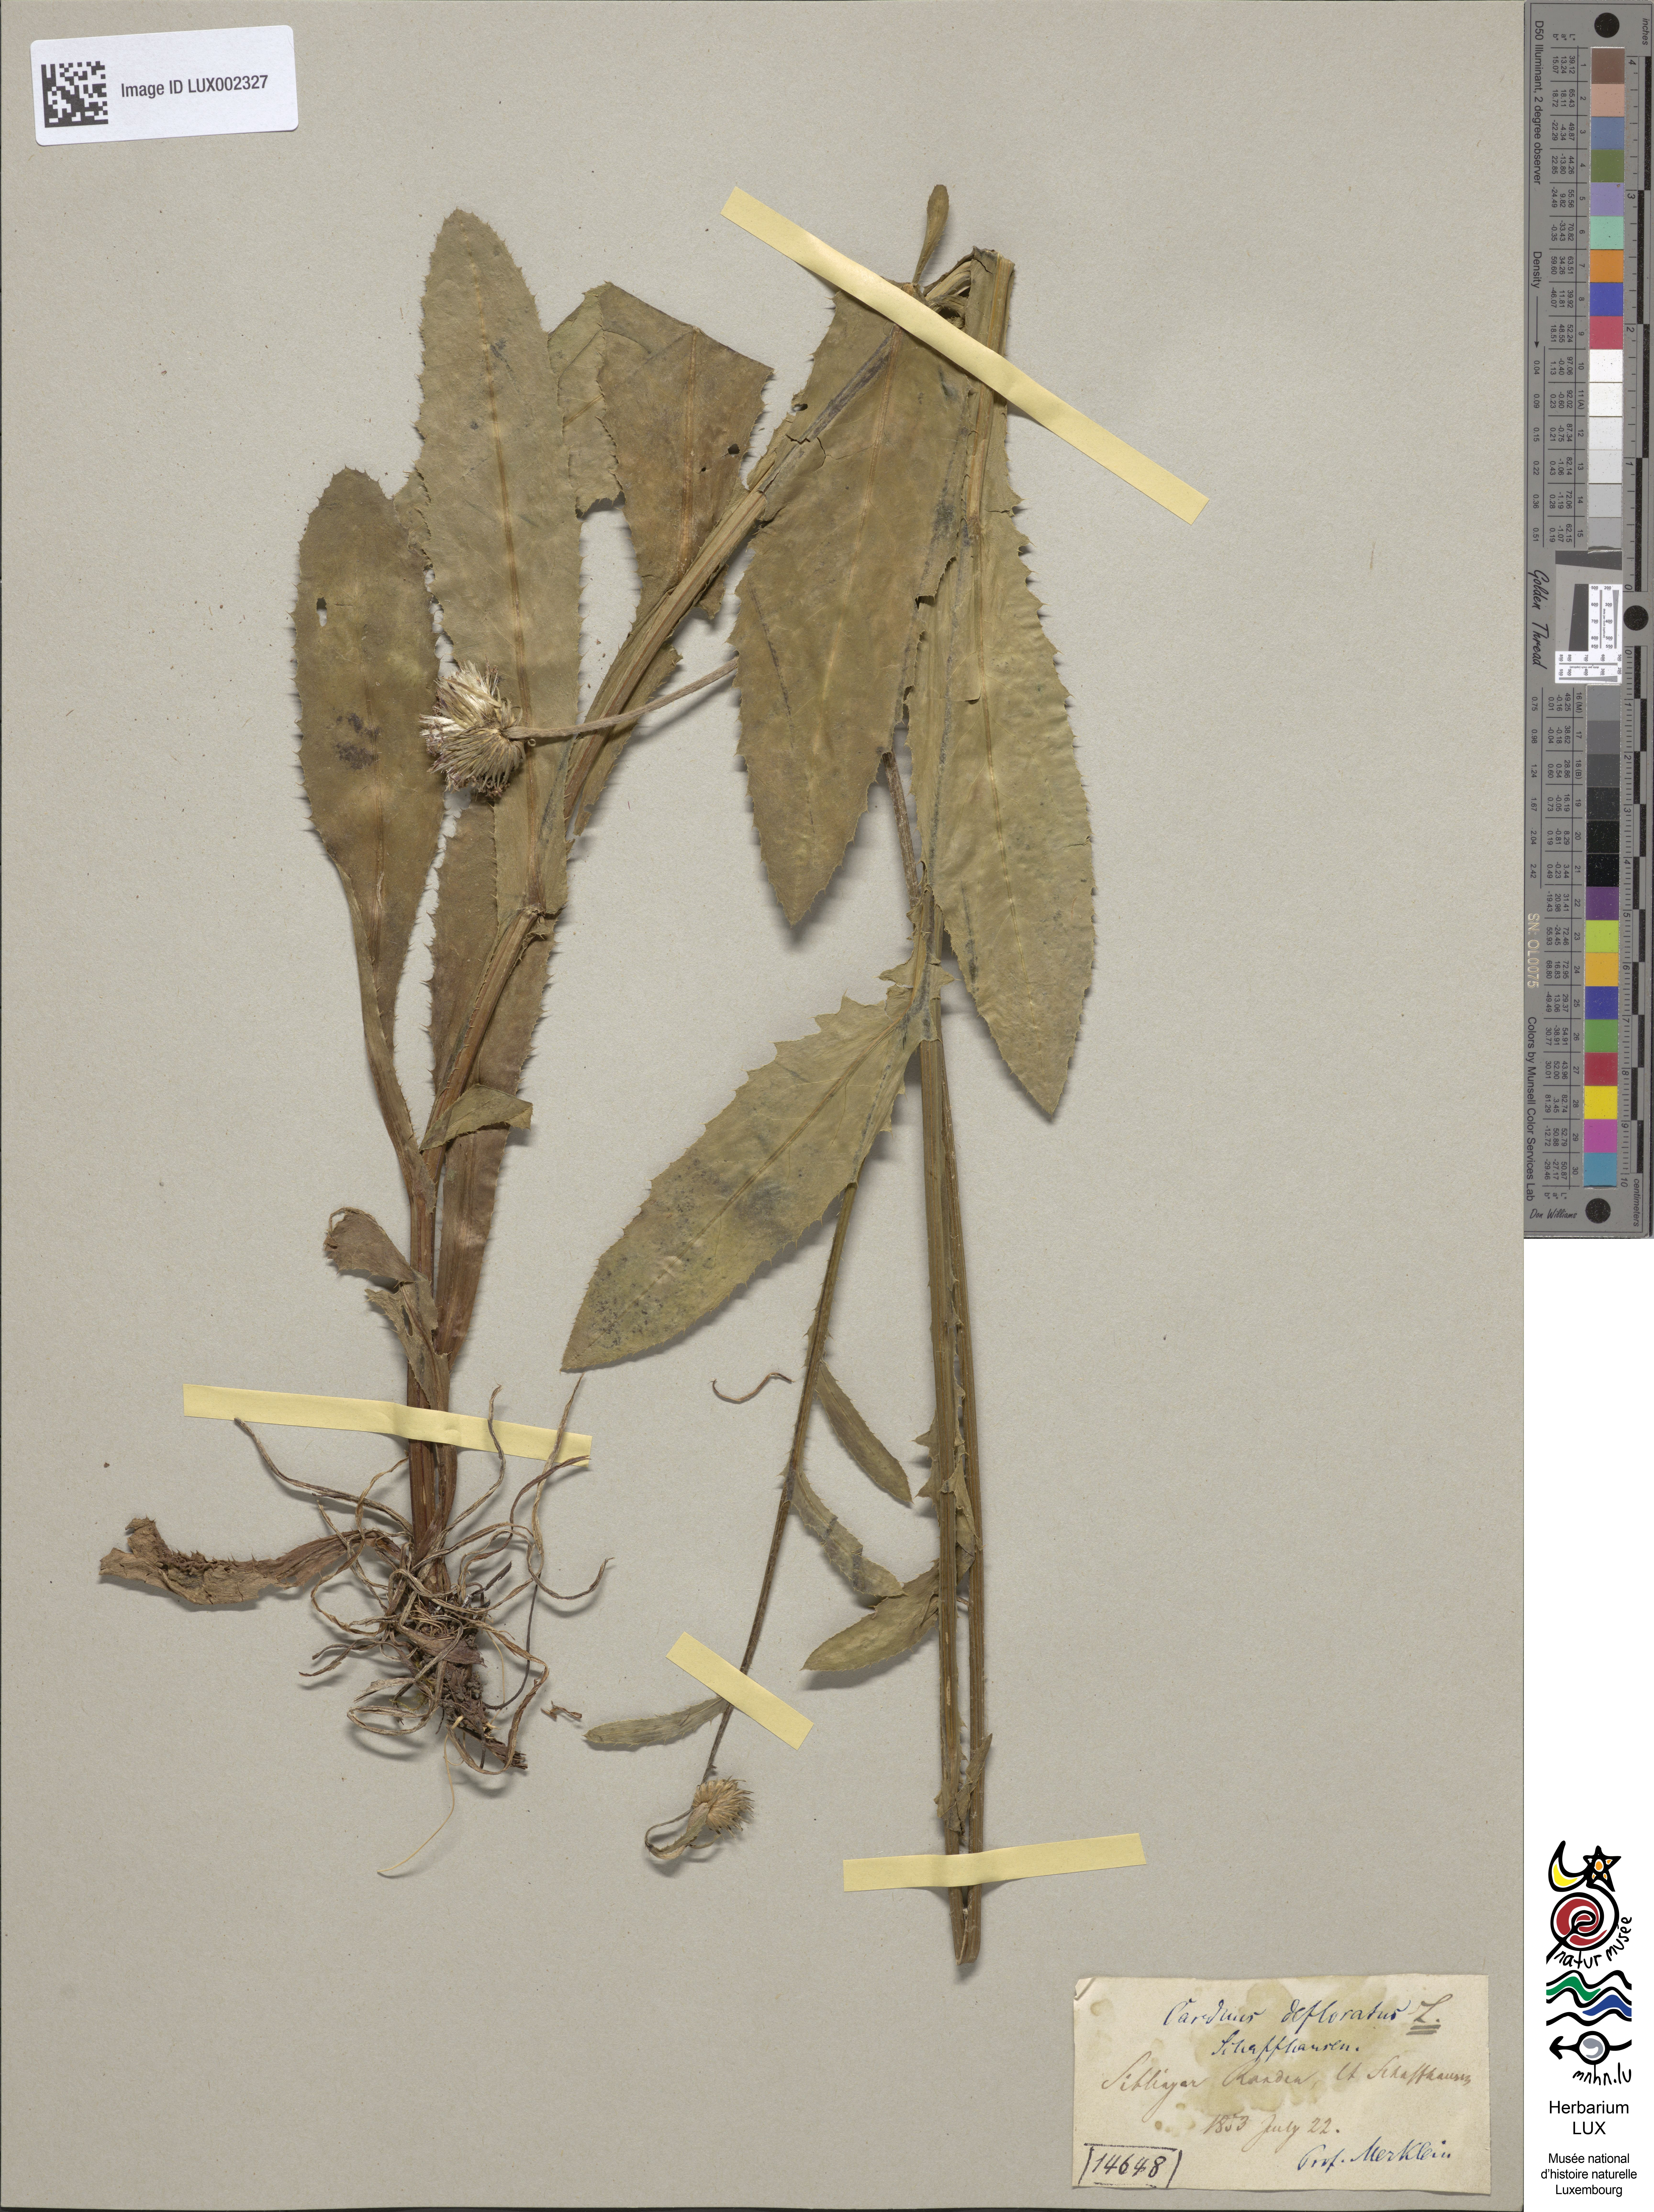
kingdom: Plantae
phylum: Tracheophyta
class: Magnoliopsida
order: Asterales
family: Asteraceae
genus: Carduus
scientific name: Carduus defloratus
